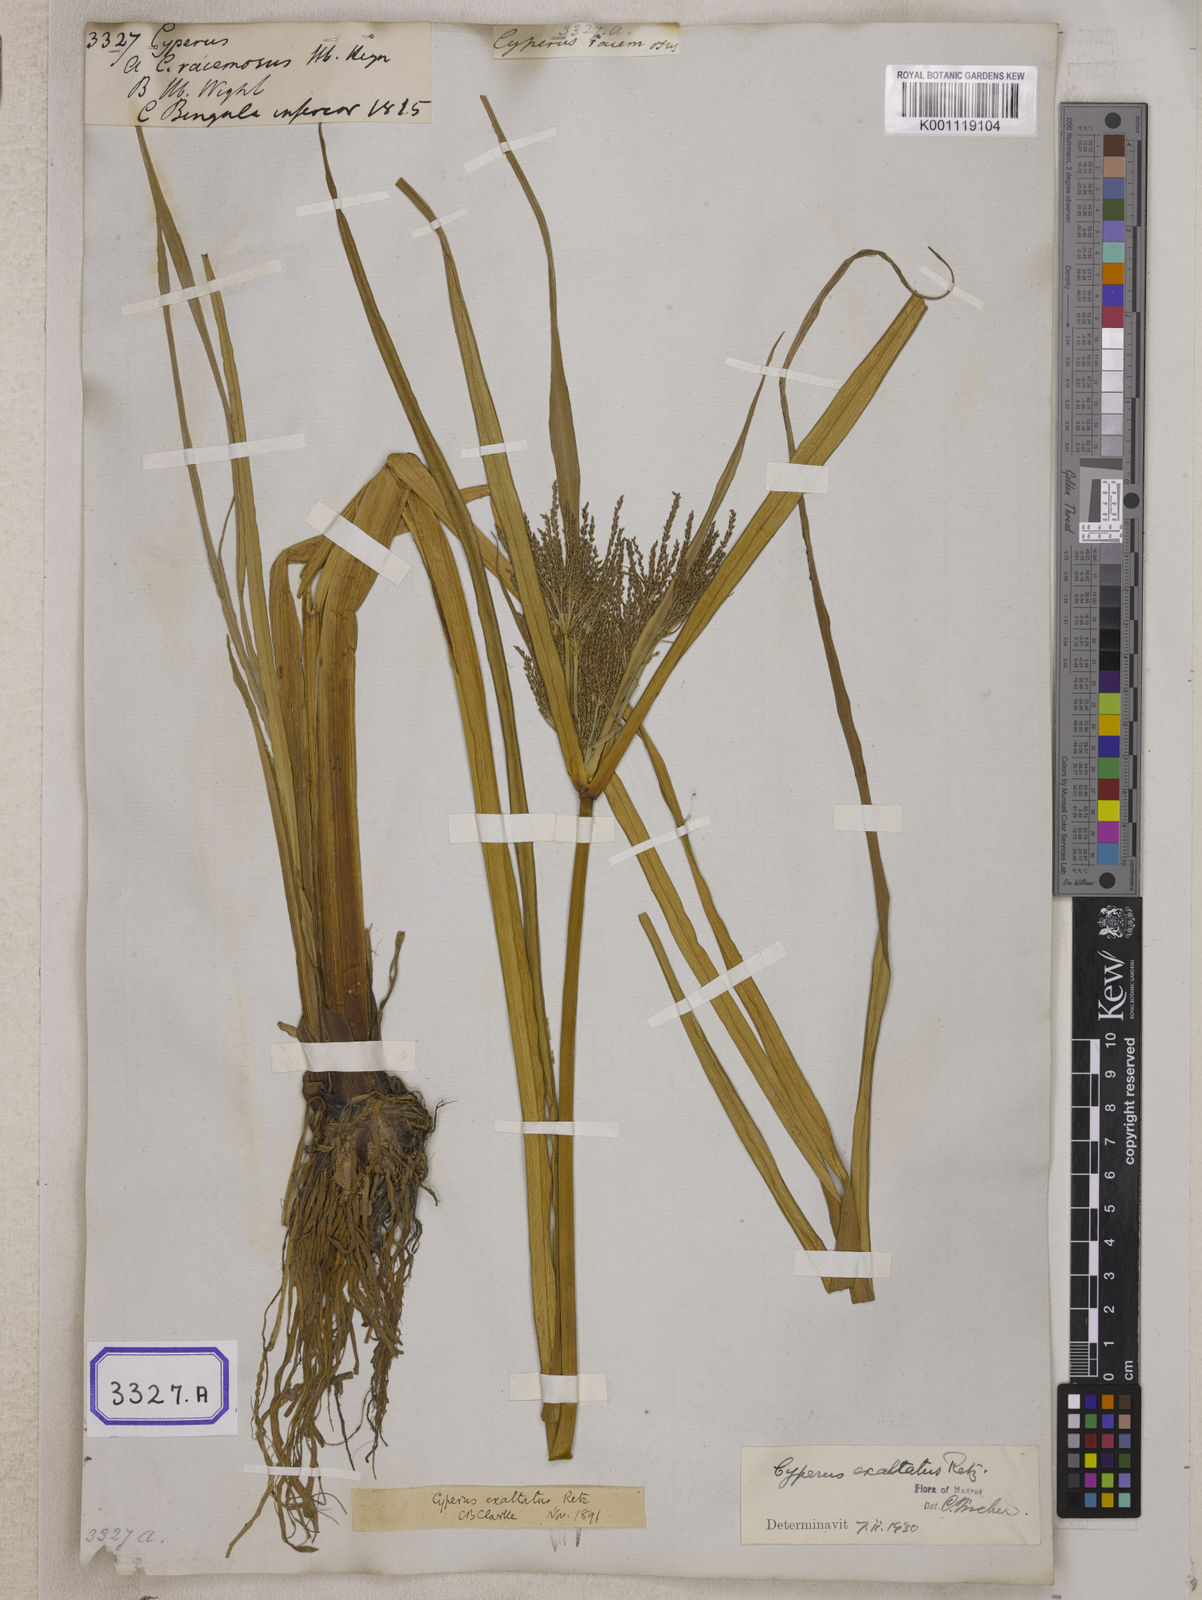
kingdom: Plantae
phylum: Tracheophyta
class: Liliopsida
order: Poales
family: Cyperaceae
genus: Cyperus
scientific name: Cyperus
